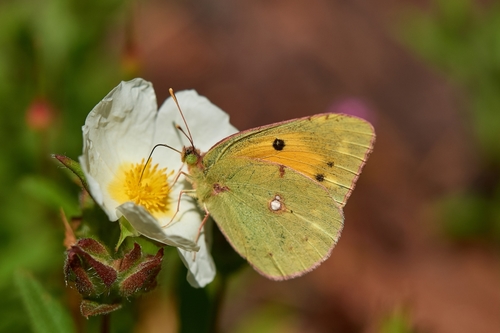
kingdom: Animalia
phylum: Arthropoda
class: Insecta
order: Lepidoptera
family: Pieridae
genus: Colias
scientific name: Colias croceus
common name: Clouded yellow
